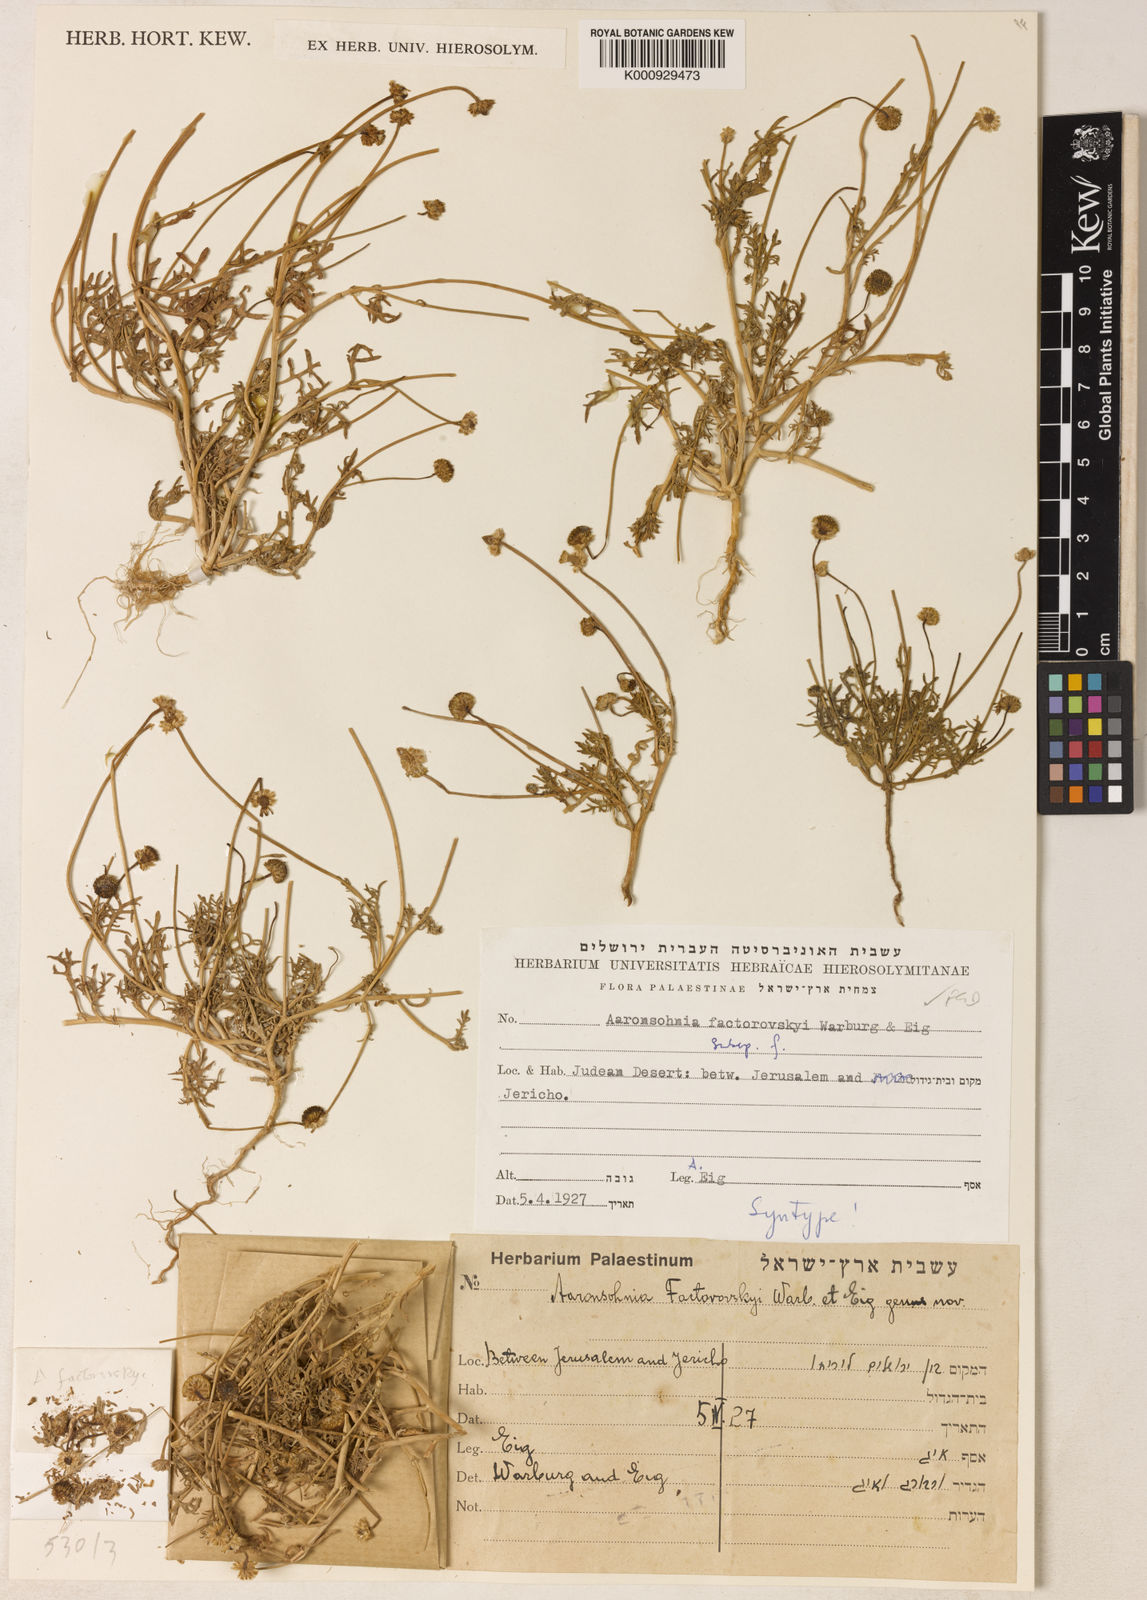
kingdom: Plantae
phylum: Tracheophyta
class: Magnoliopsida
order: Asterales
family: Asteraceae
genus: Otoglyphis
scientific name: Otoglyphis factorovskyi
